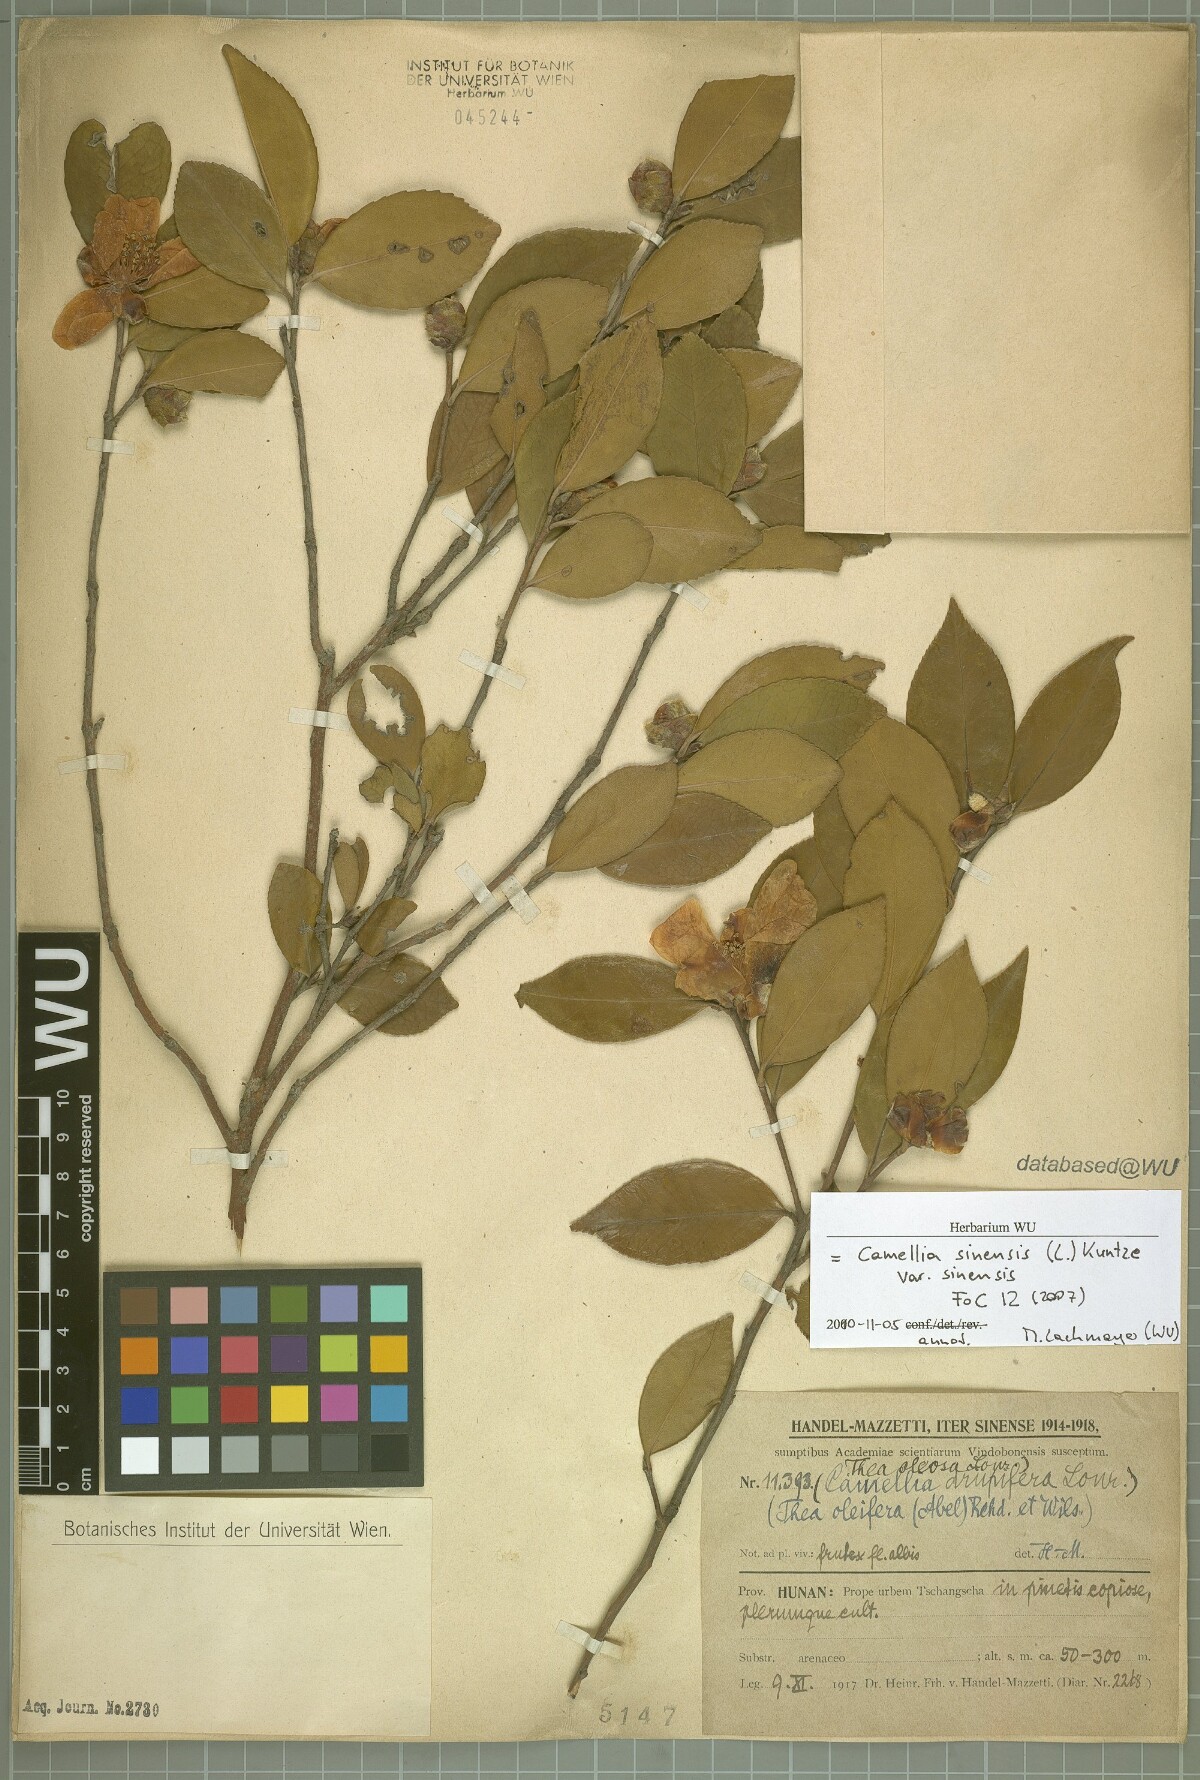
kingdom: Plantae
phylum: Tracheophyta
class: Magnoliopsida
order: Ericales
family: Theaceae
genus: Camellia
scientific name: Camellia sinensis
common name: Tea
